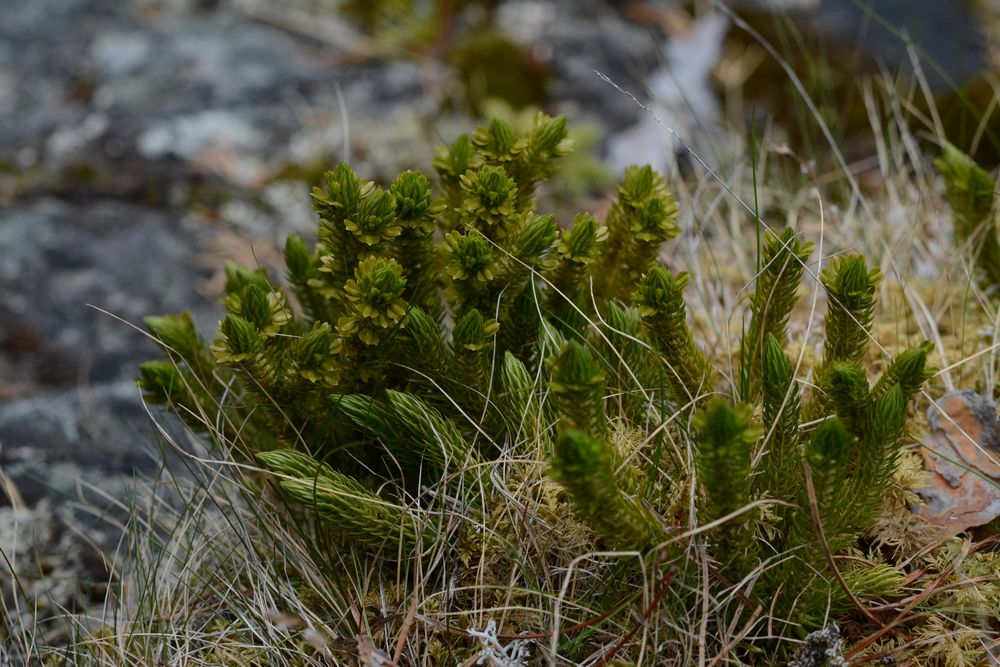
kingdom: Plantae
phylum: Tracheophyta
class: Lycopodiopsida
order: Lycopodiales
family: Lycopodiaceae
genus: Huperzia
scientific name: Huperzia selago
